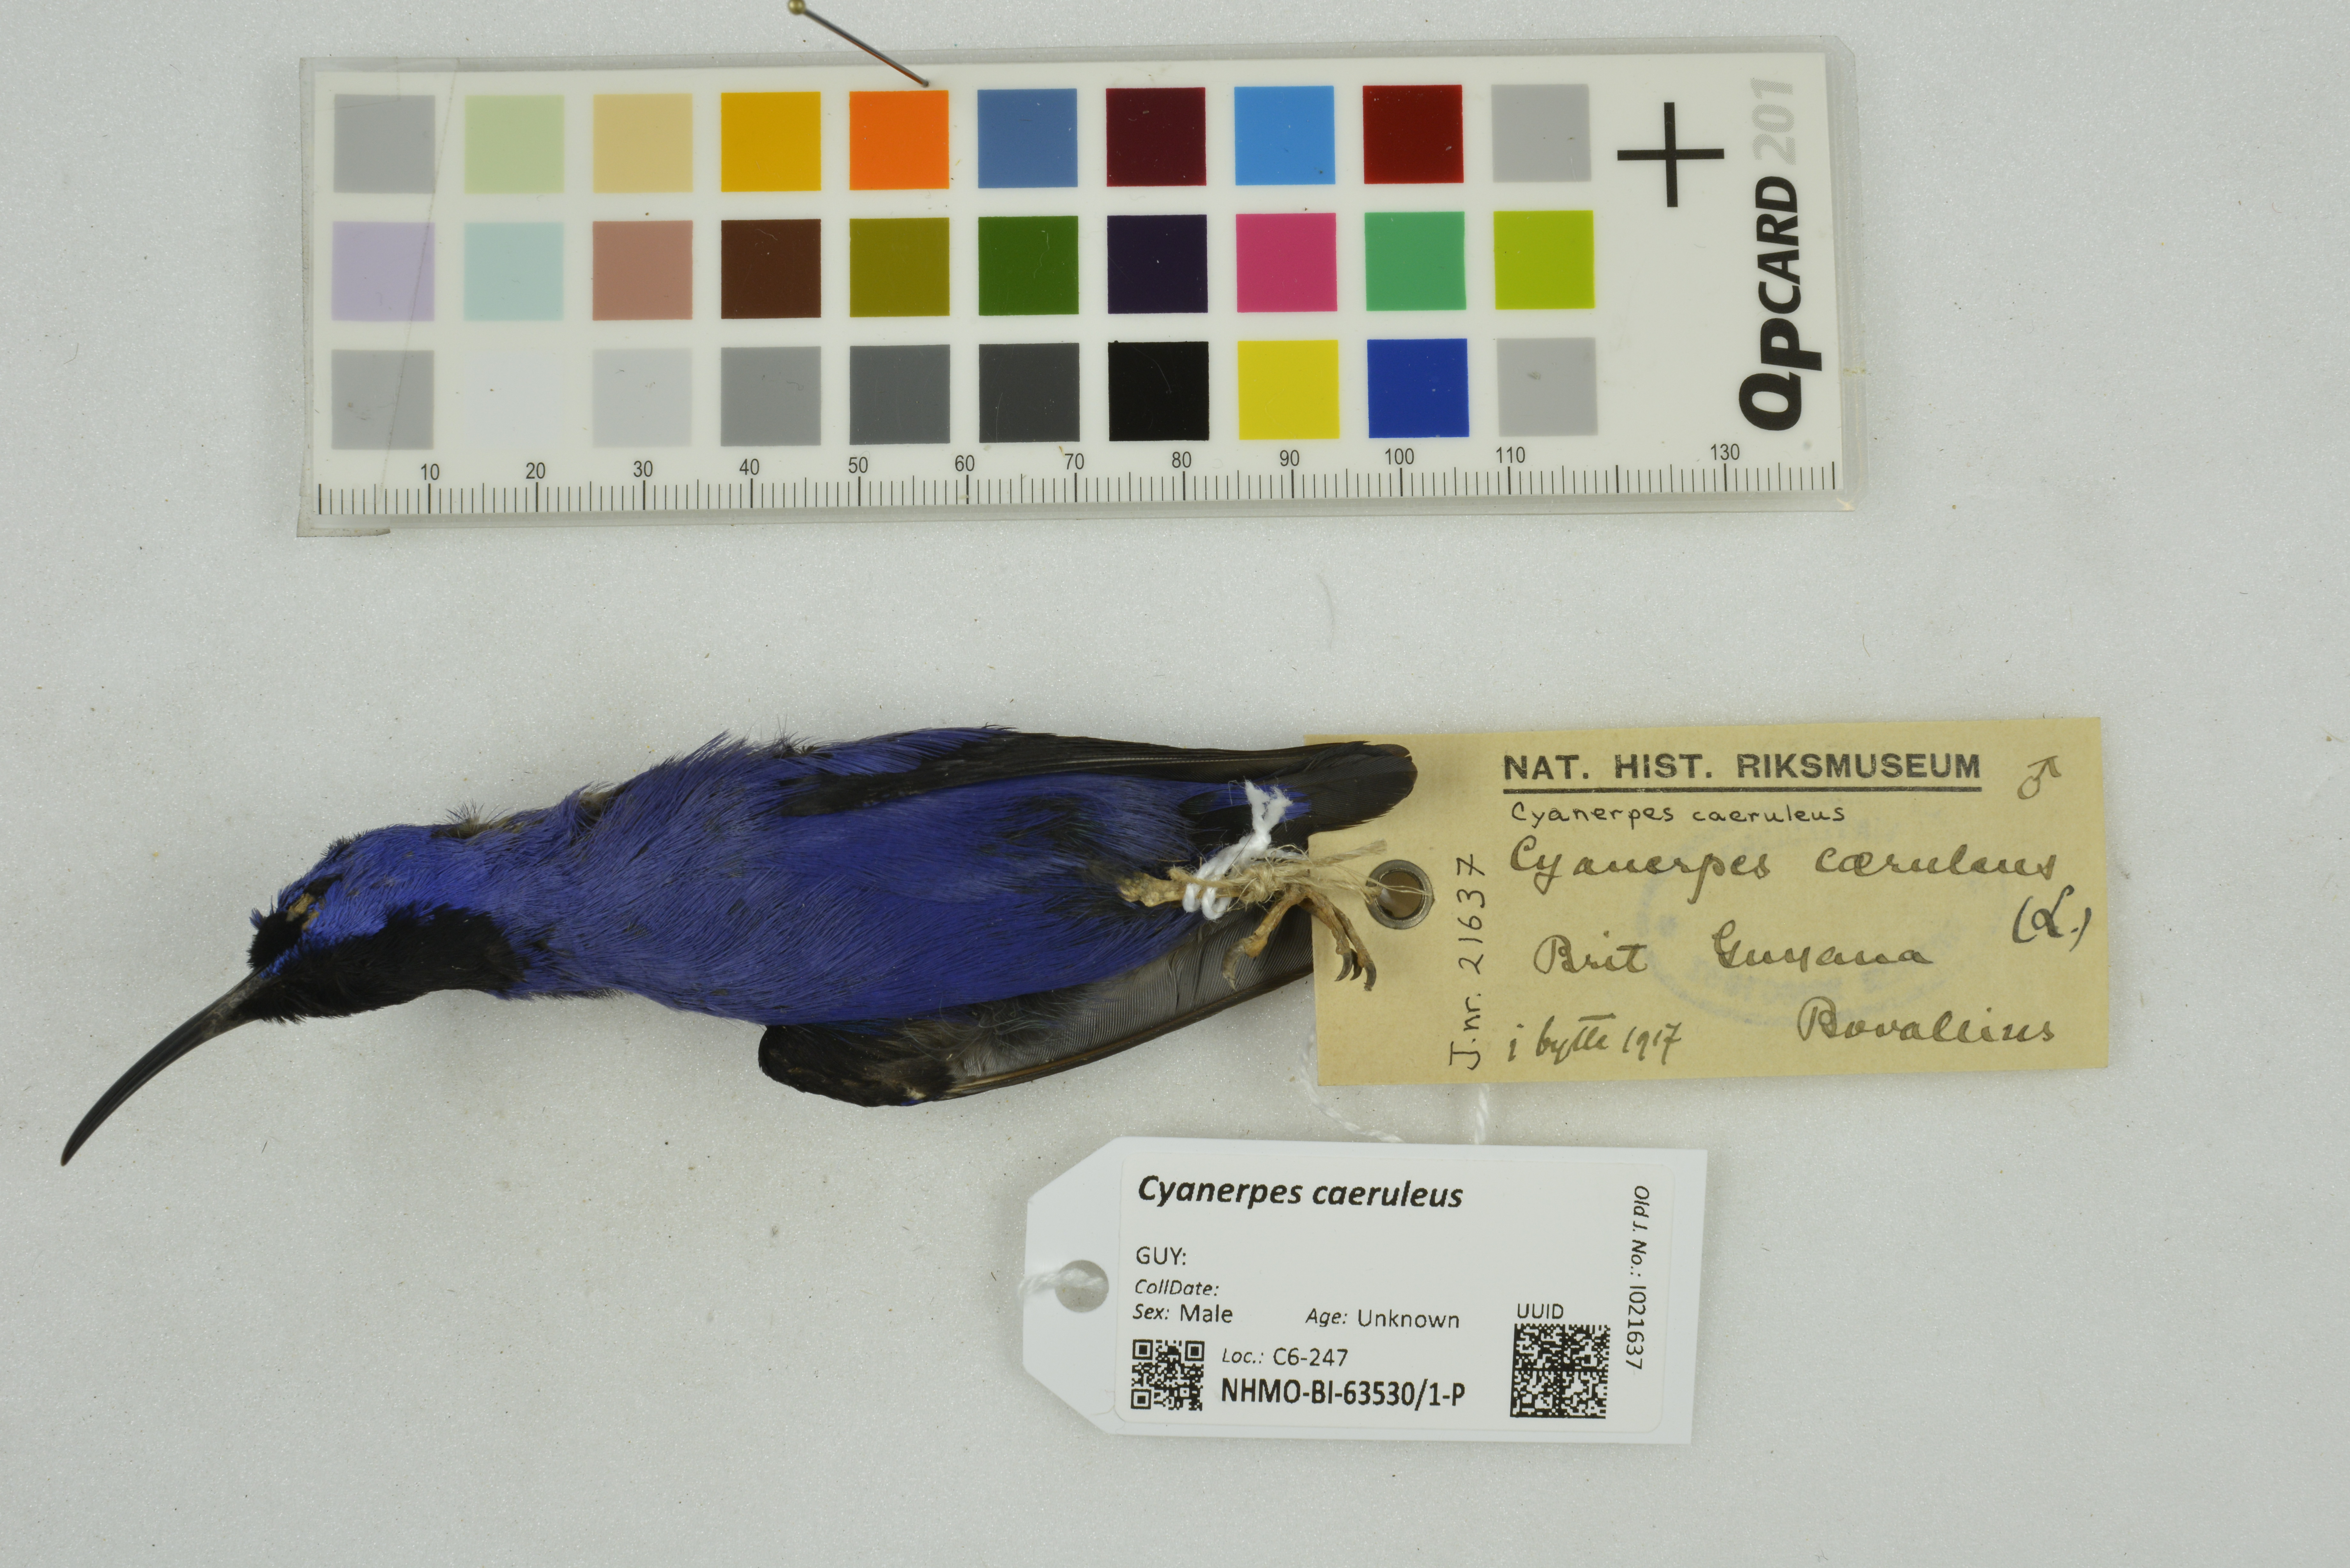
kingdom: Animalia
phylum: Chordata
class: Aves
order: Passeriformes
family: Thraupidae
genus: Cyanerpes
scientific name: Cyanerpes caeruleus
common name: Purple honeycreeper
